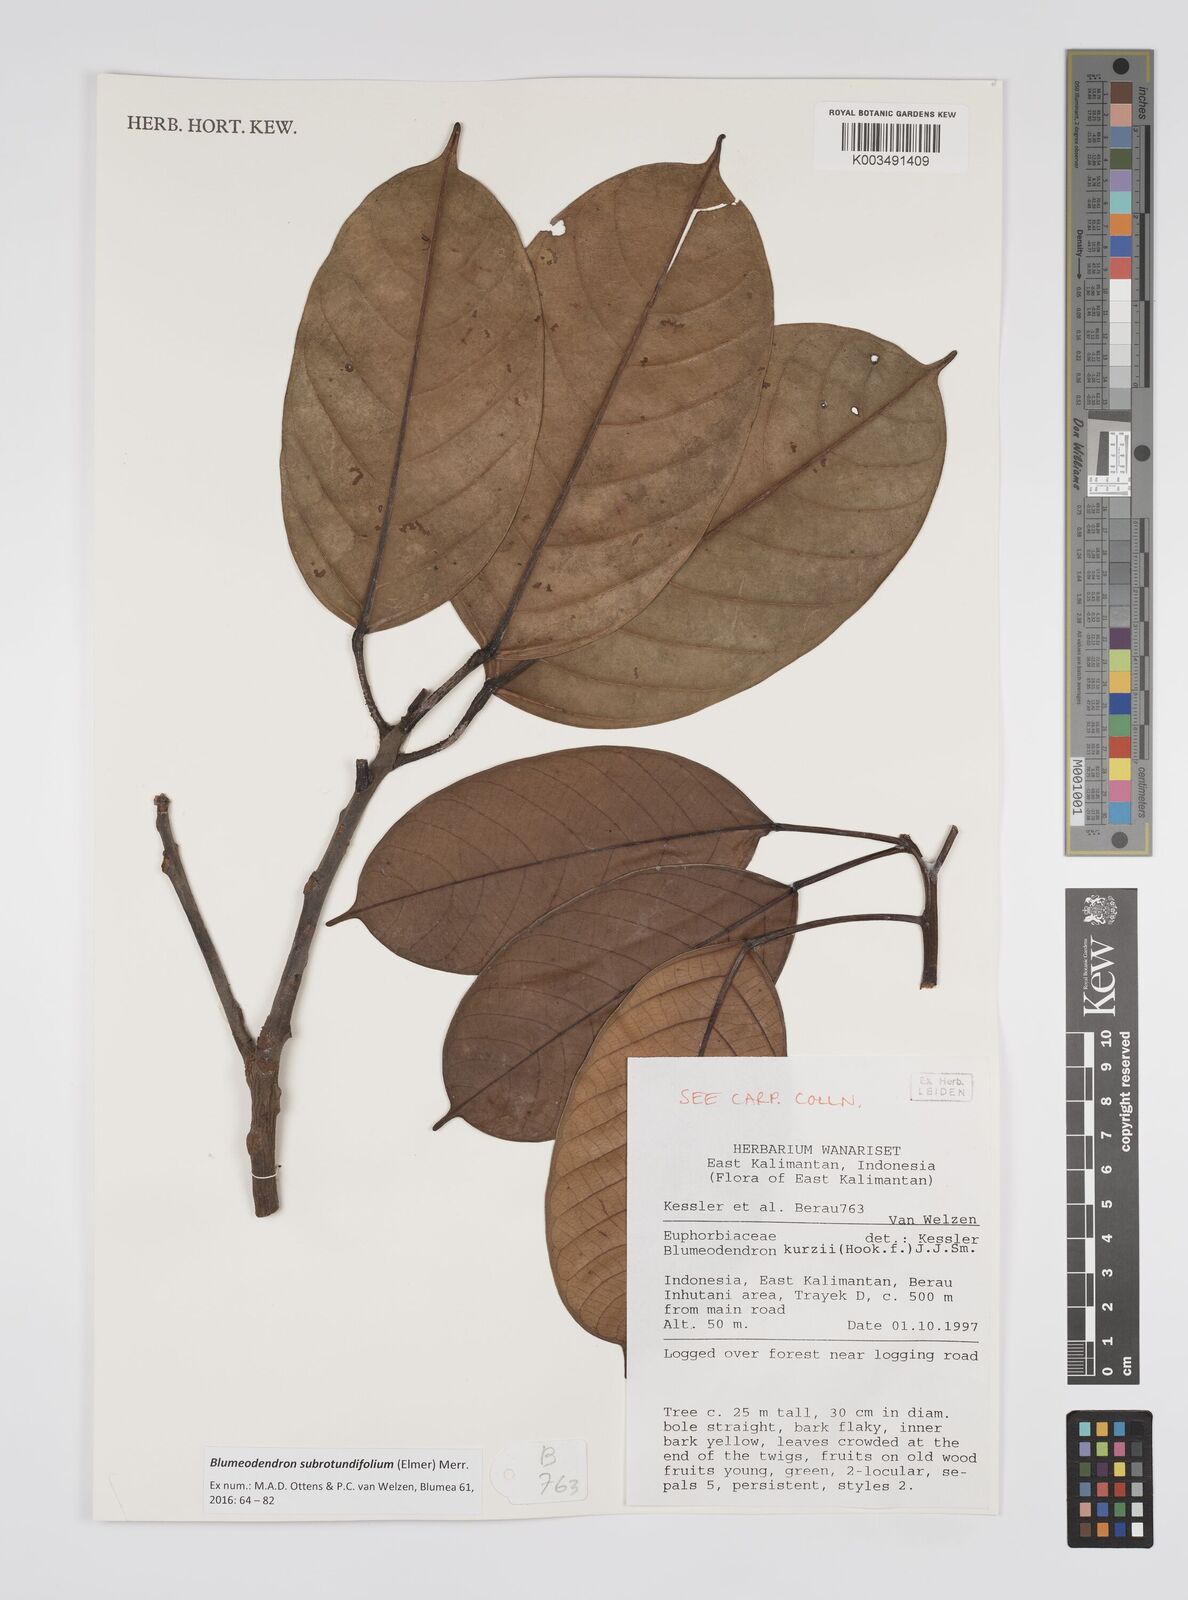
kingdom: Plantae
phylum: Tracheophyta
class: Magnoliopsida
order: Malpighiales
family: Euphorbiaceae
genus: Blumeodendron
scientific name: Blumeodendron subrotundifolium
